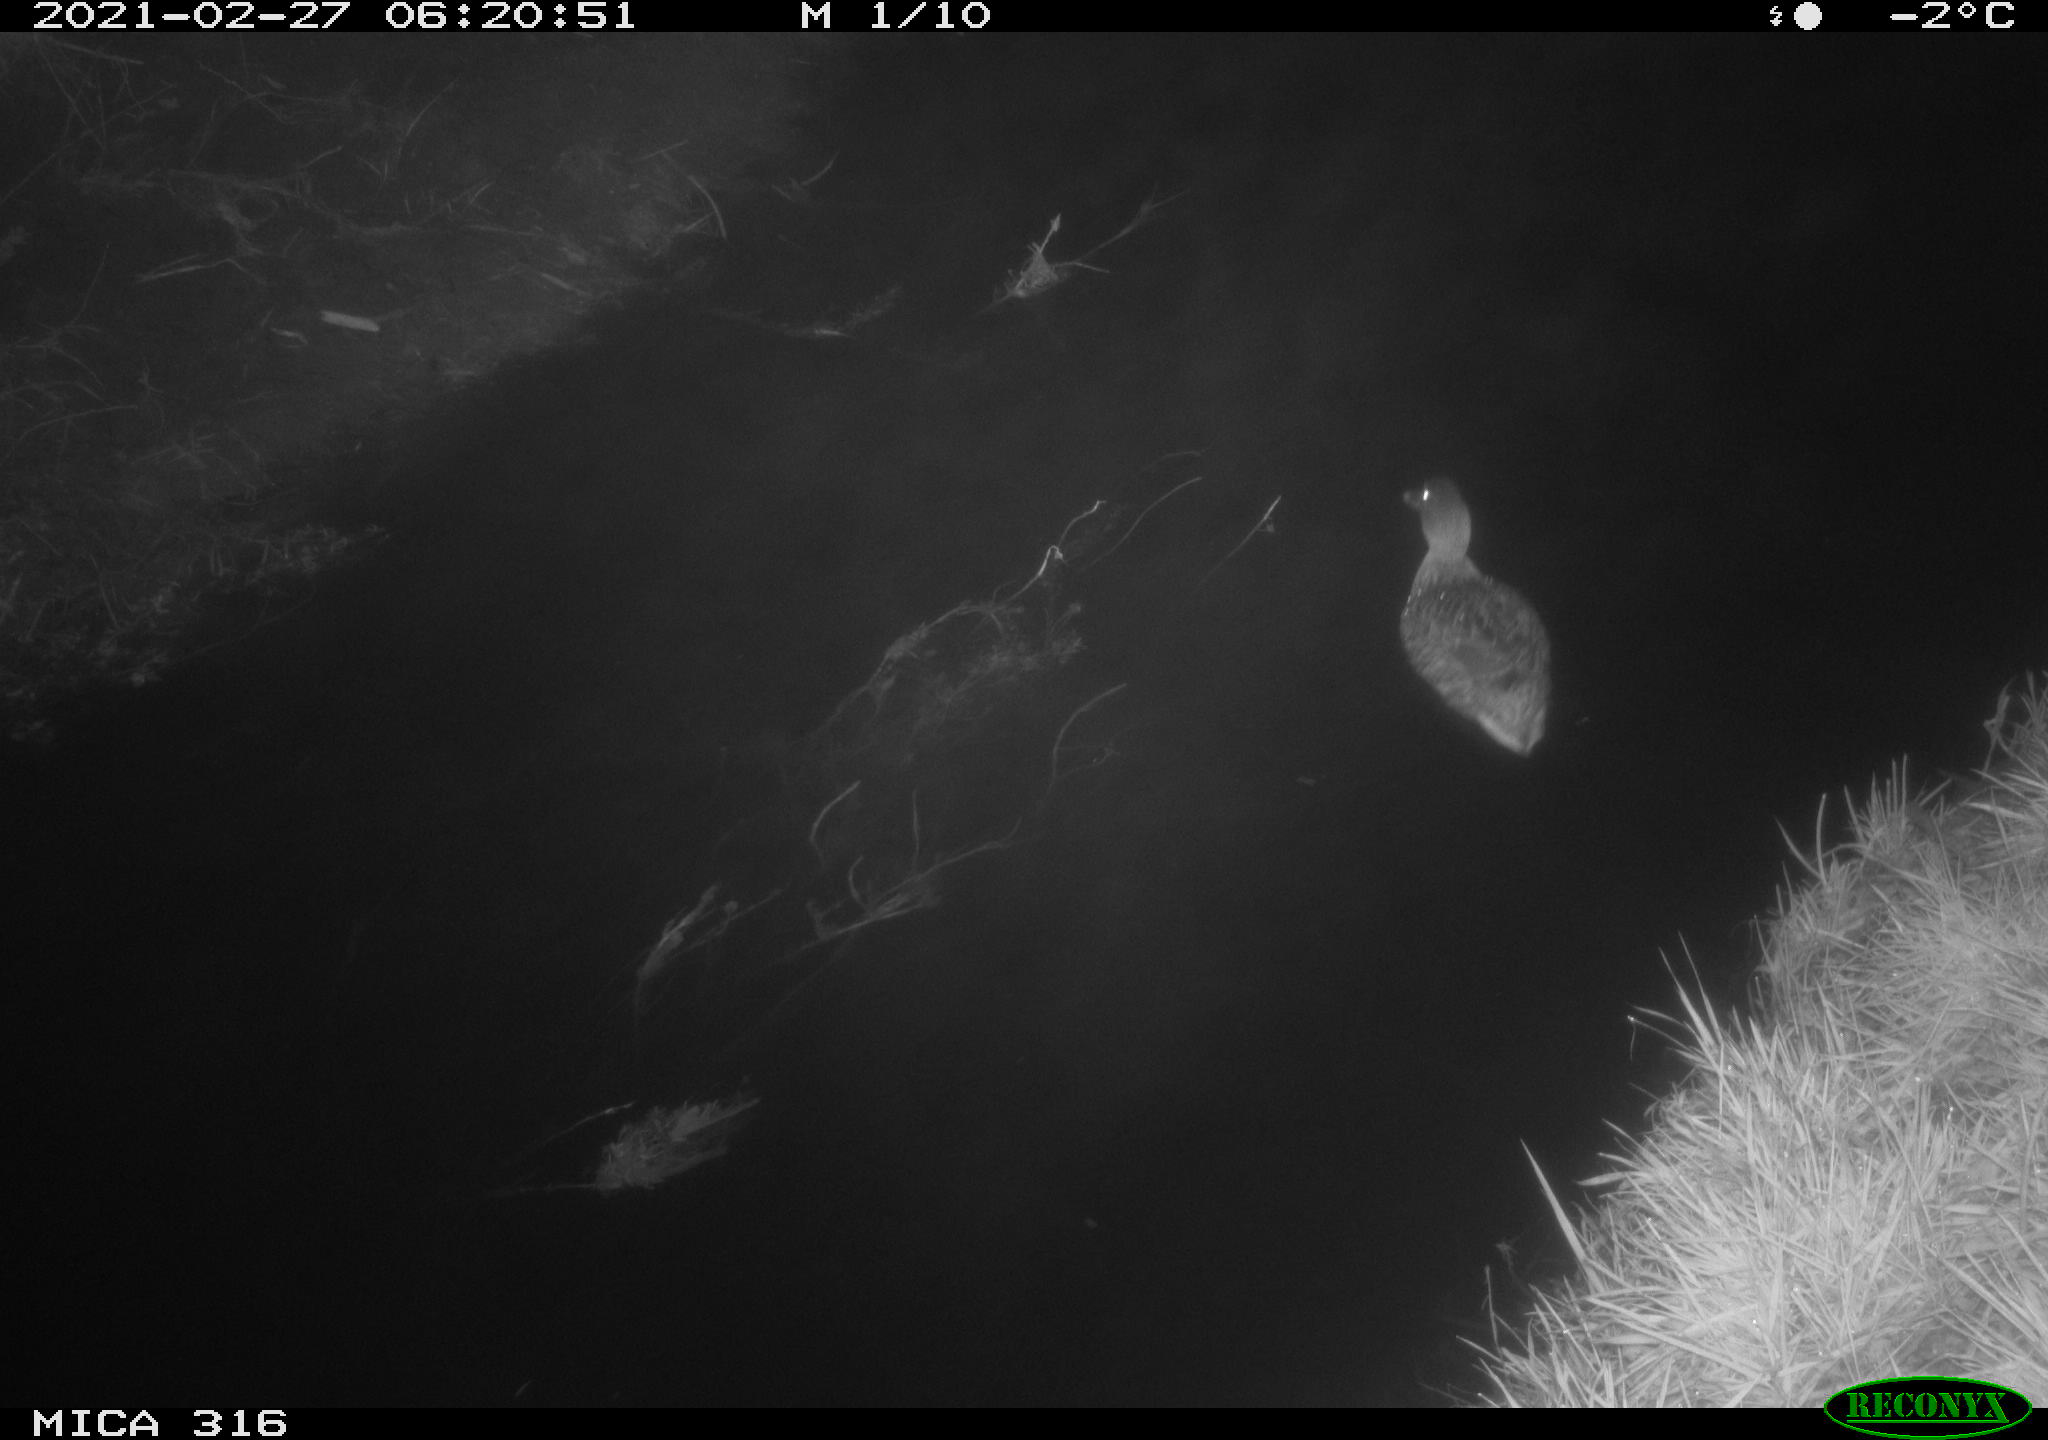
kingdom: Animalia
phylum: Chordata
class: Aves
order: Anseriformes
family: Anatidae
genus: Anas
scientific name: Anas platyrhynchos
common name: Mallard
